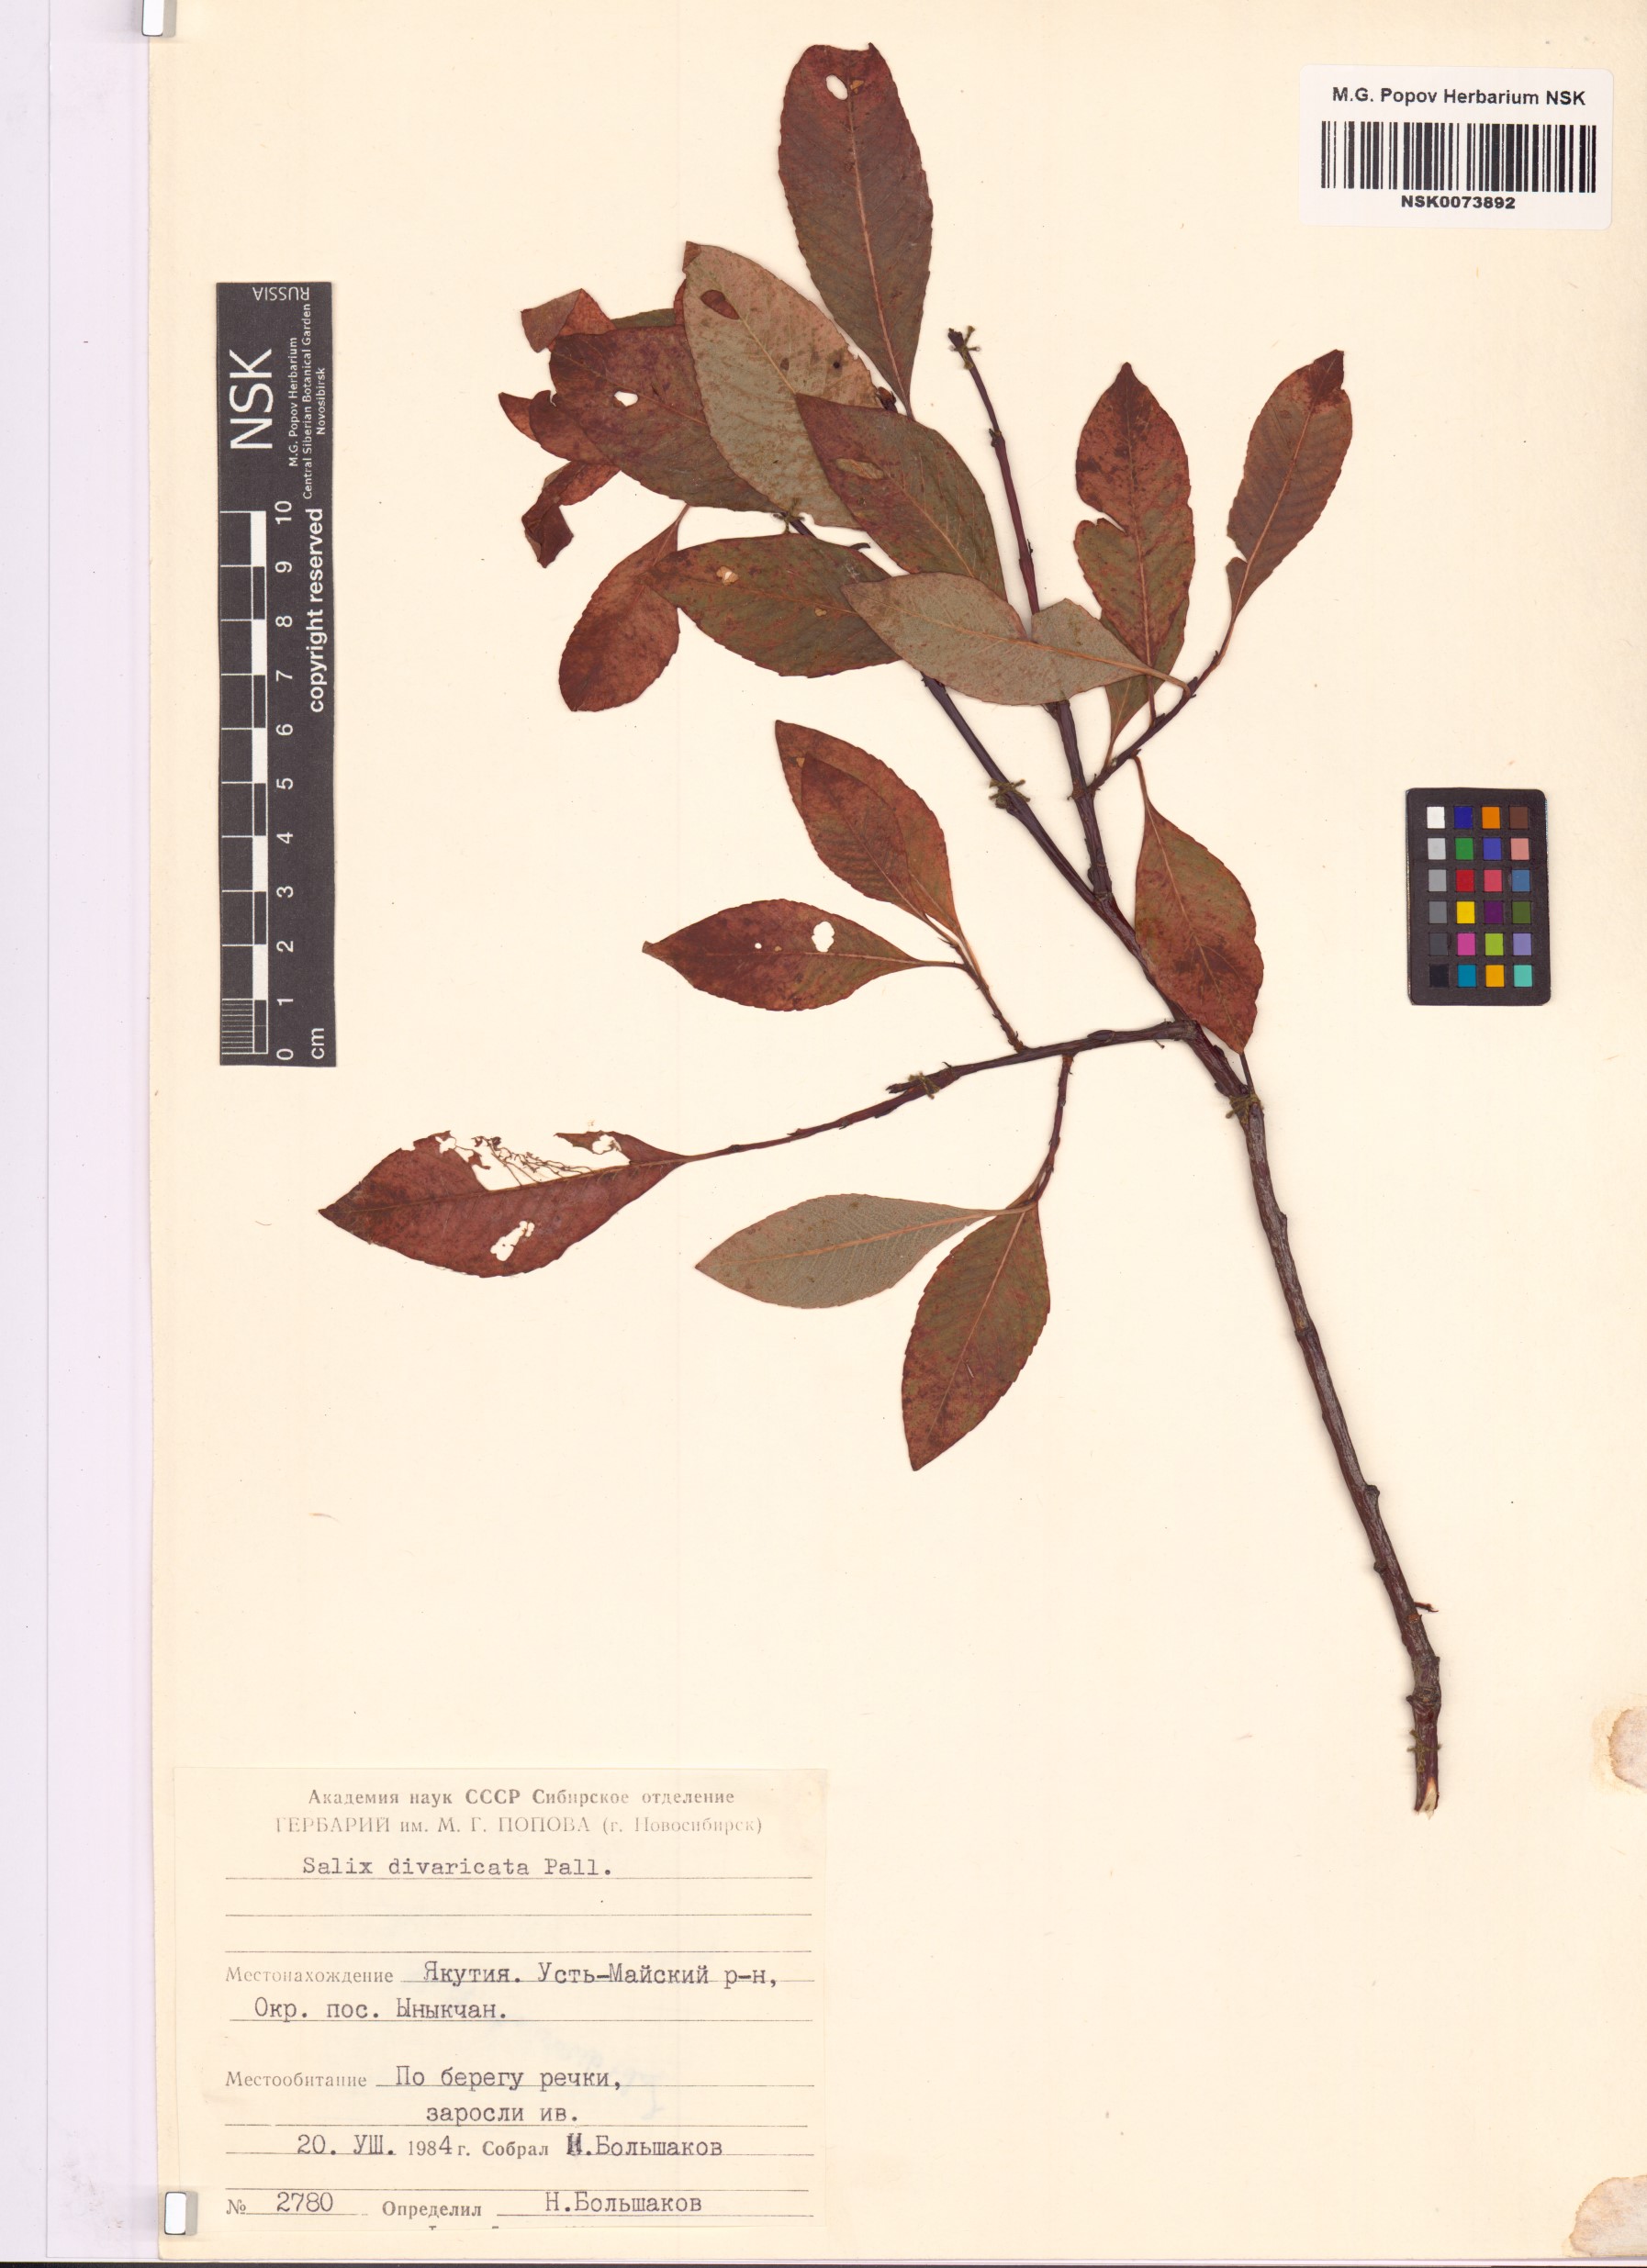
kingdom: Plantae
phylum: Tracheophyta
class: Magnoliopsida
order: Malpighiales
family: Salicaceae
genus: Salix
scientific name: Salix divaricata
